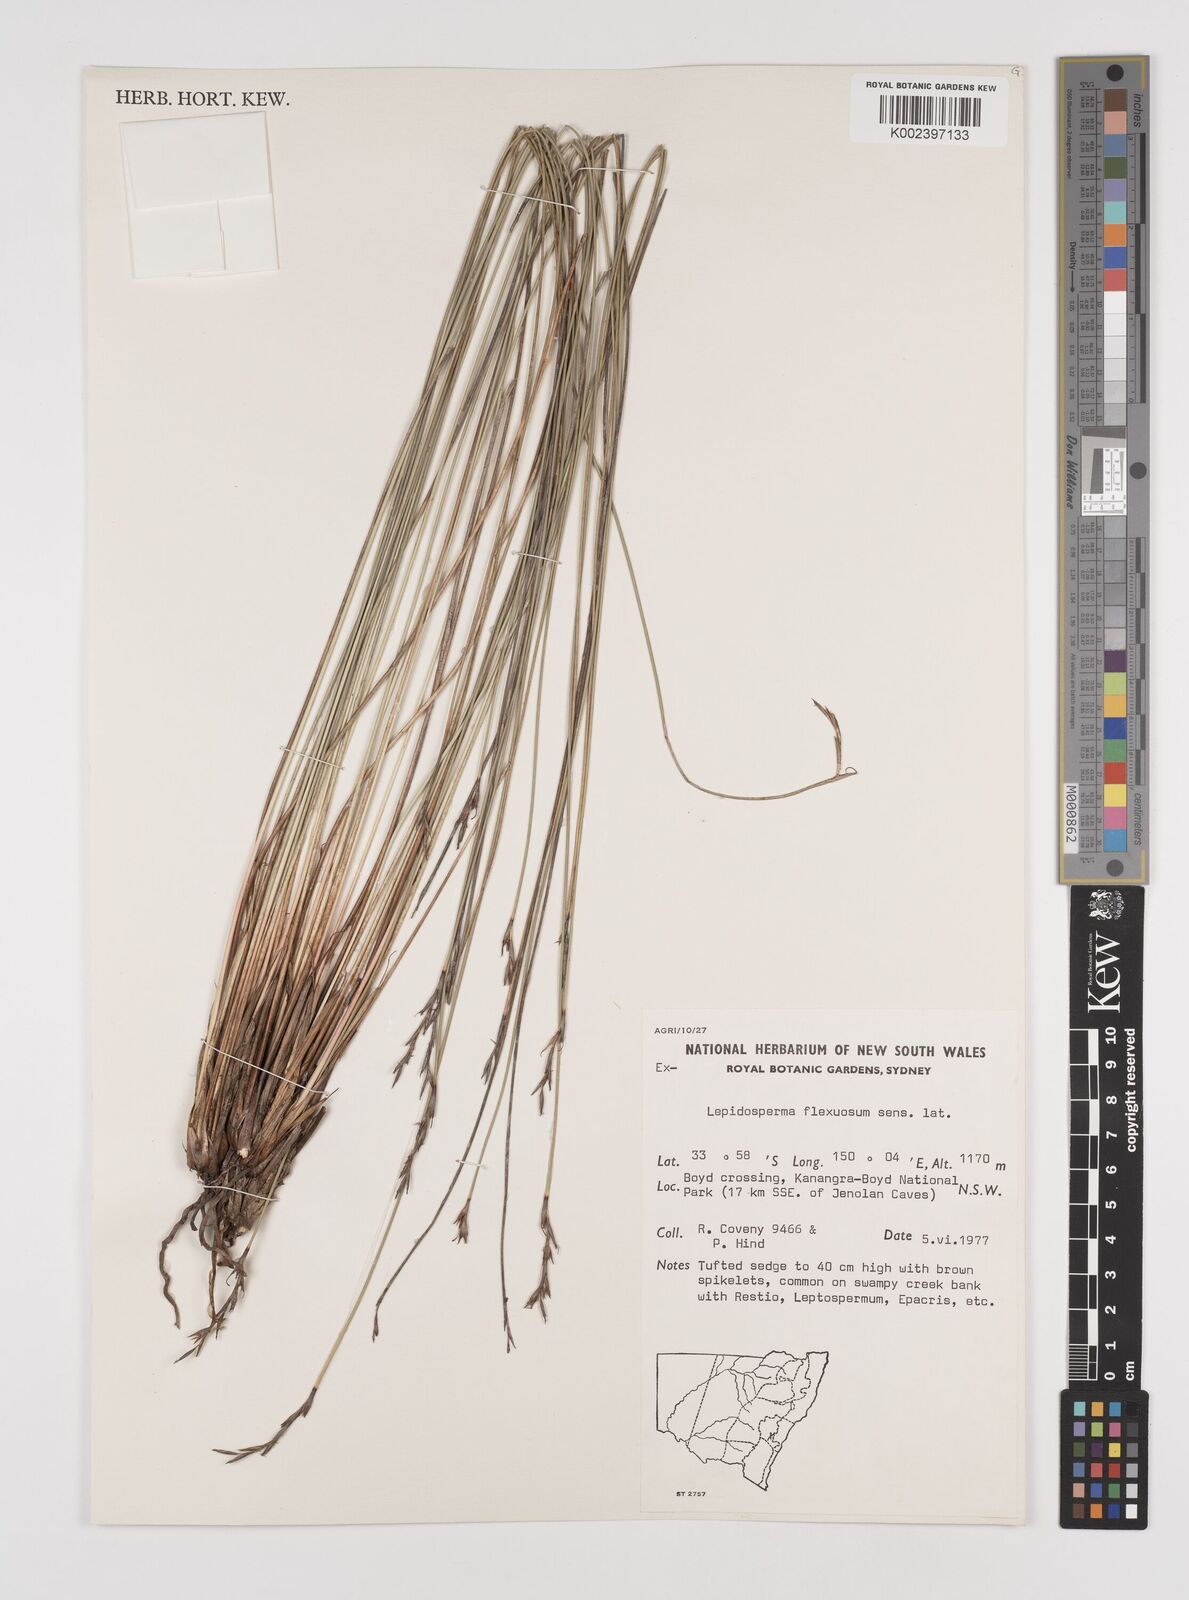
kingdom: Plantae
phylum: Tracheophyta
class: Liliopsida
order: Poales
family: Cyperaceae
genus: Lepidosperma
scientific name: Lepidosperma flexuosum
